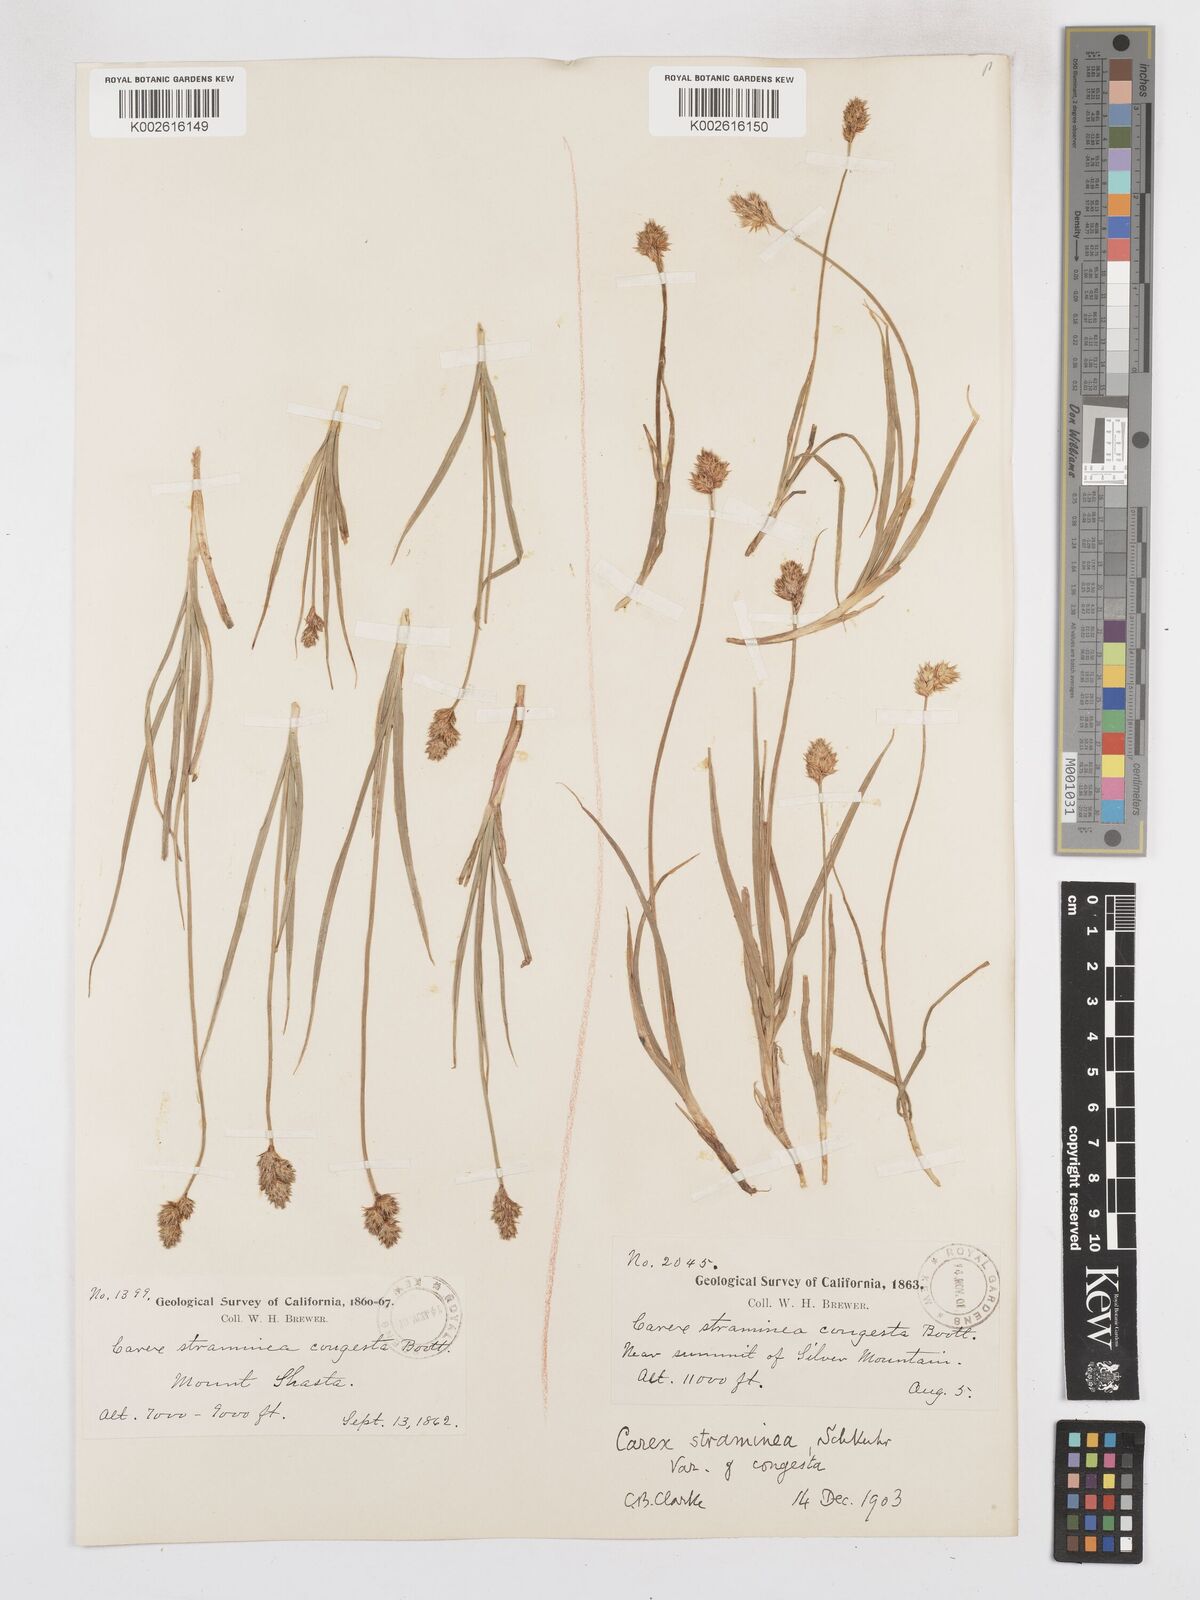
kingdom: Plantae
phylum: Tracheophyta
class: Liliopsida
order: Poales
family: Cyperaceae
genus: Carex
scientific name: Carex brevior
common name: Brevior sedge
